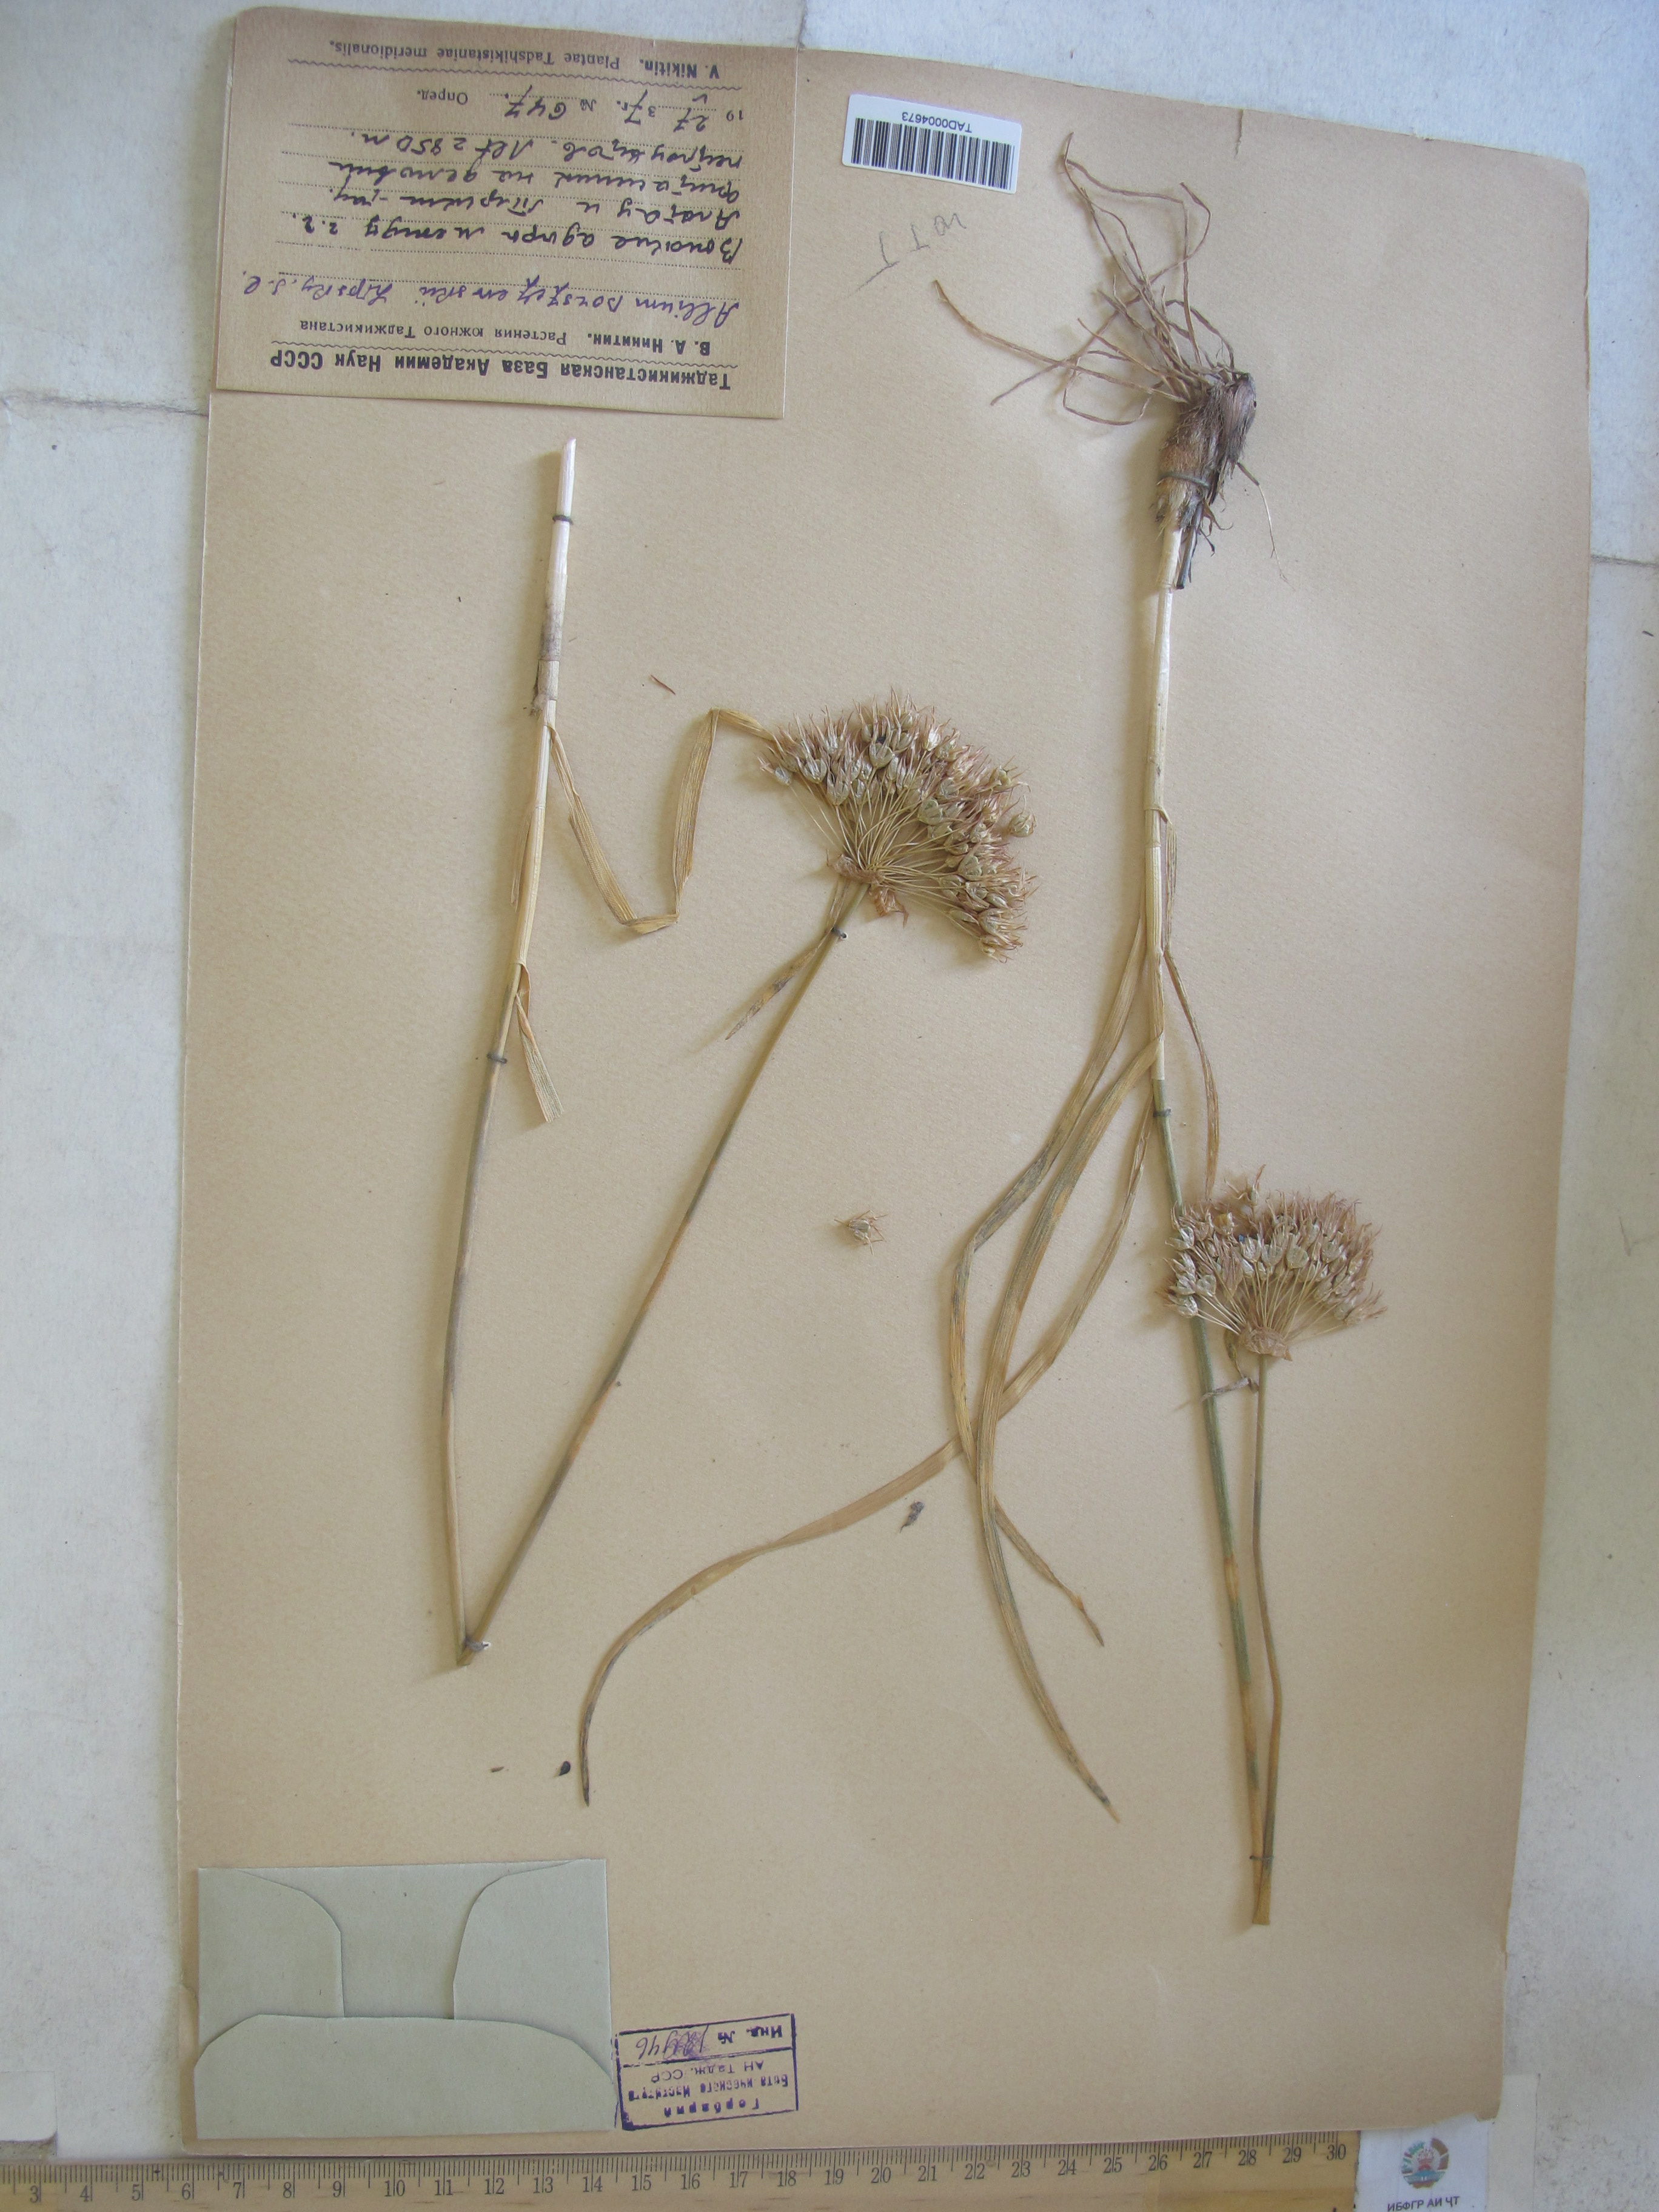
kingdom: Plantae
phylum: Tracheophyta
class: Liliopsida
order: Asparagales
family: Amaryllidaceae
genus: Allium
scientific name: Allium barsczewskii
